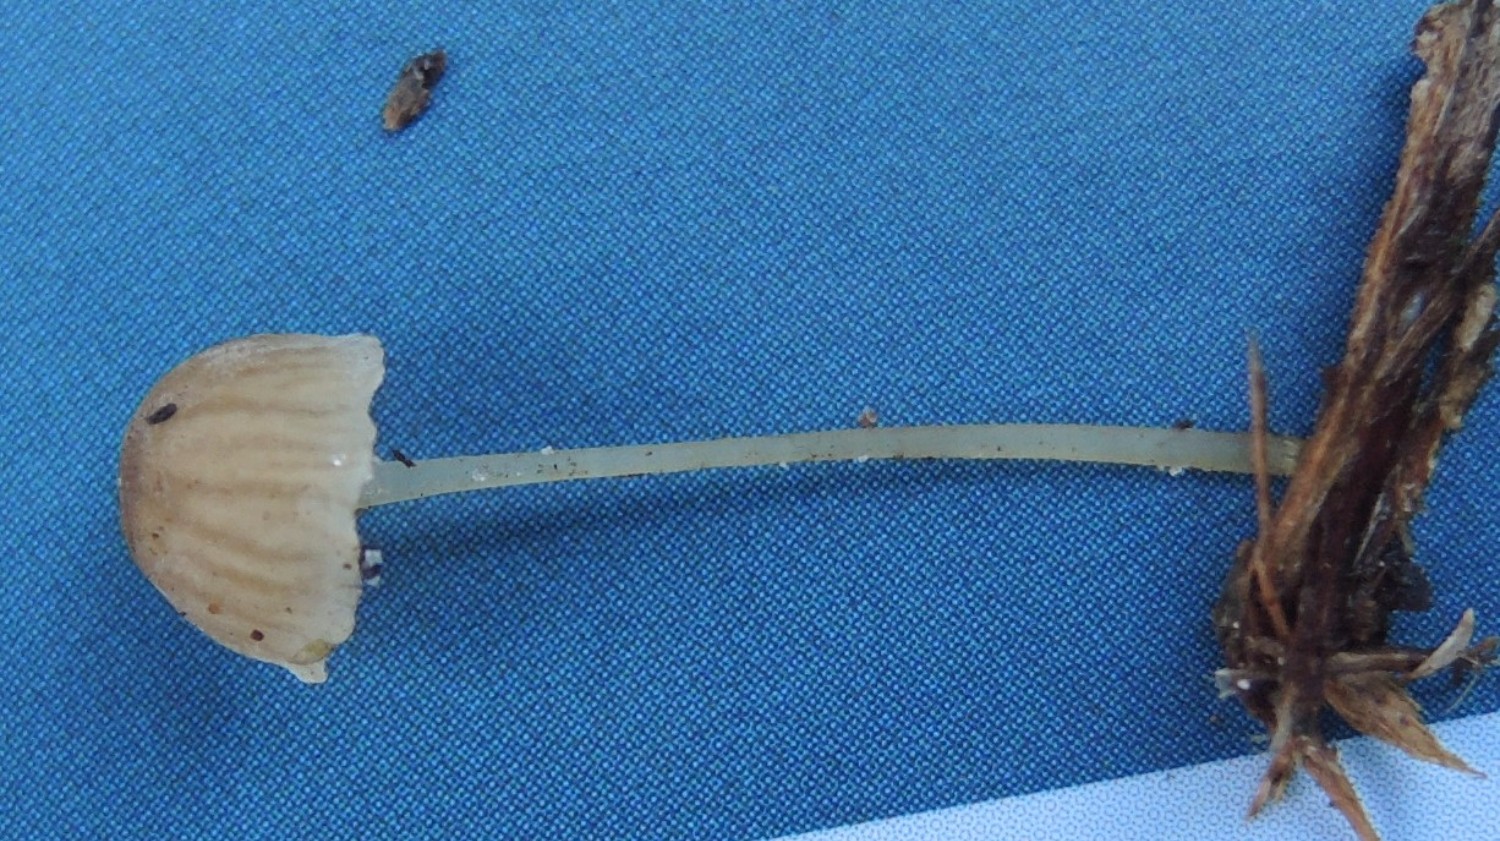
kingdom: Fungi
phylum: Basidiomycota
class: Agaricomycetes
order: Agaricales
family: Porotheleaceae
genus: Phloeomana
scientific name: Phloeomana speirea
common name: kvist-huesvamp
